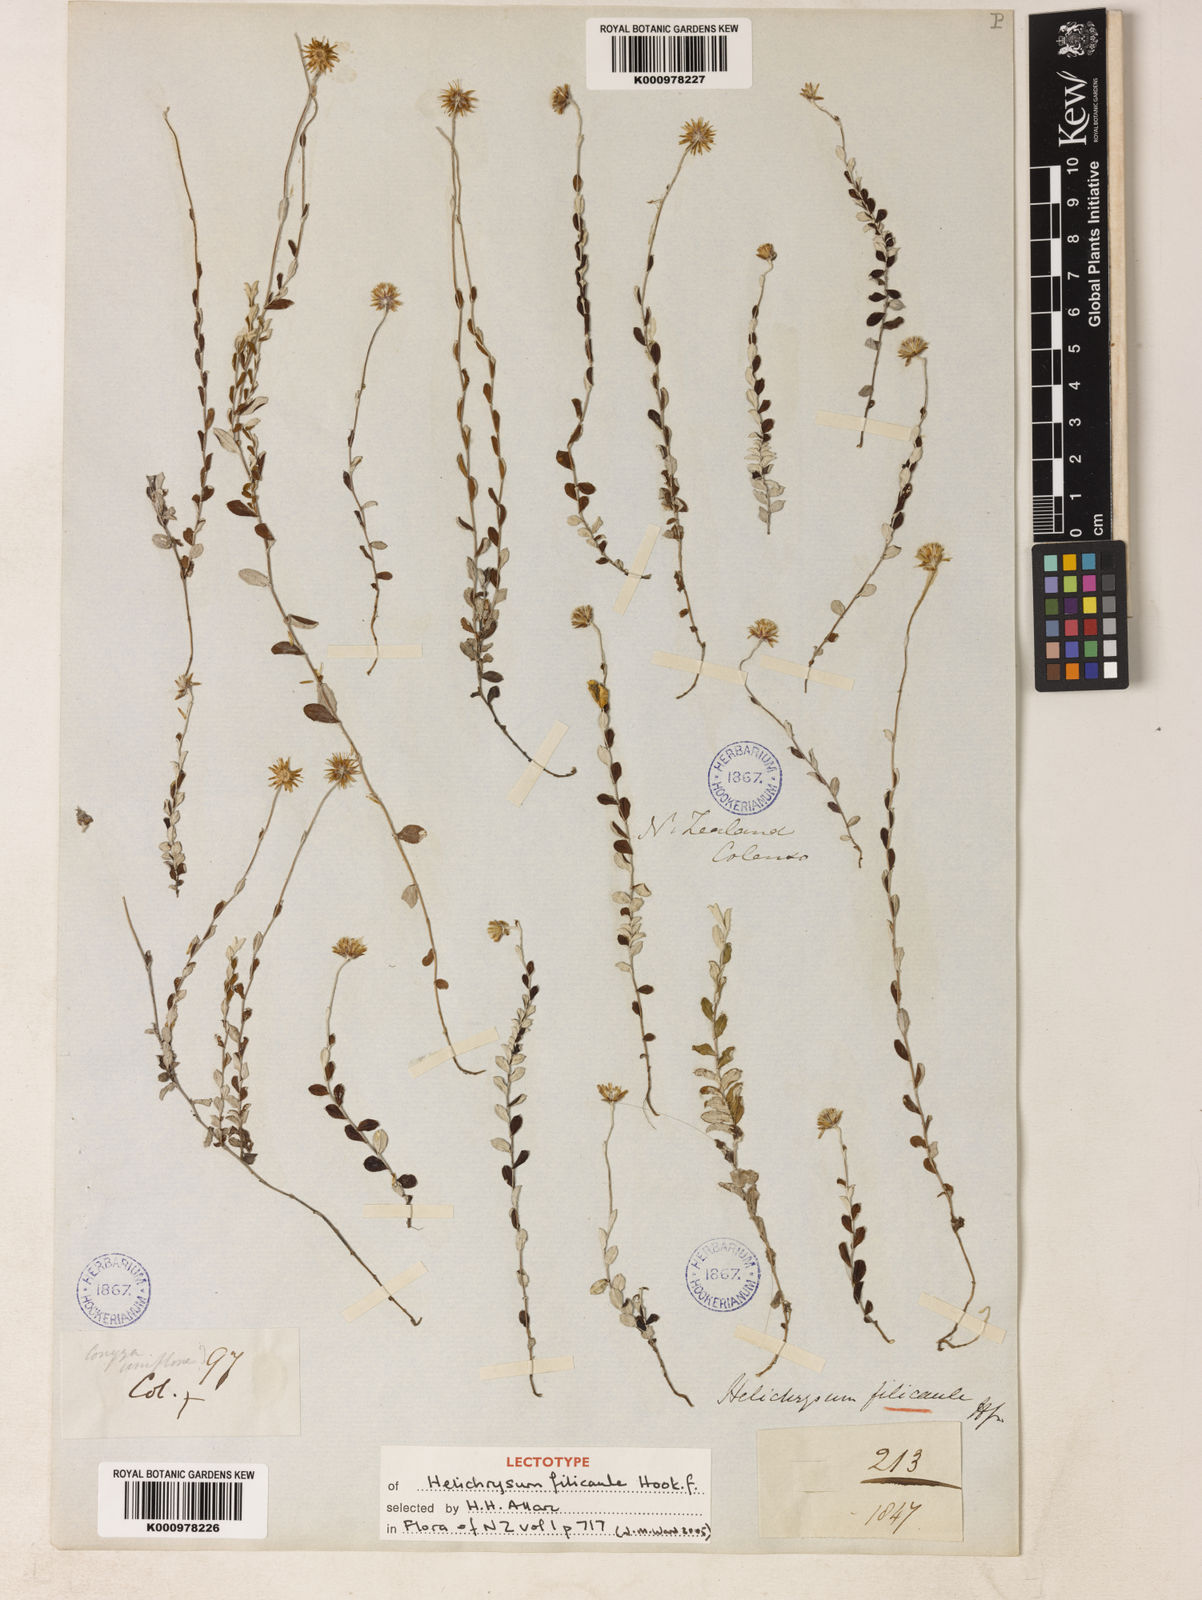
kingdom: Plantae
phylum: Tracheophyta
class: Magnoliopsida
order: Asterales
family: Asteraceae
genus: Helichrysum
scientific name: Helichrysum filicaule
